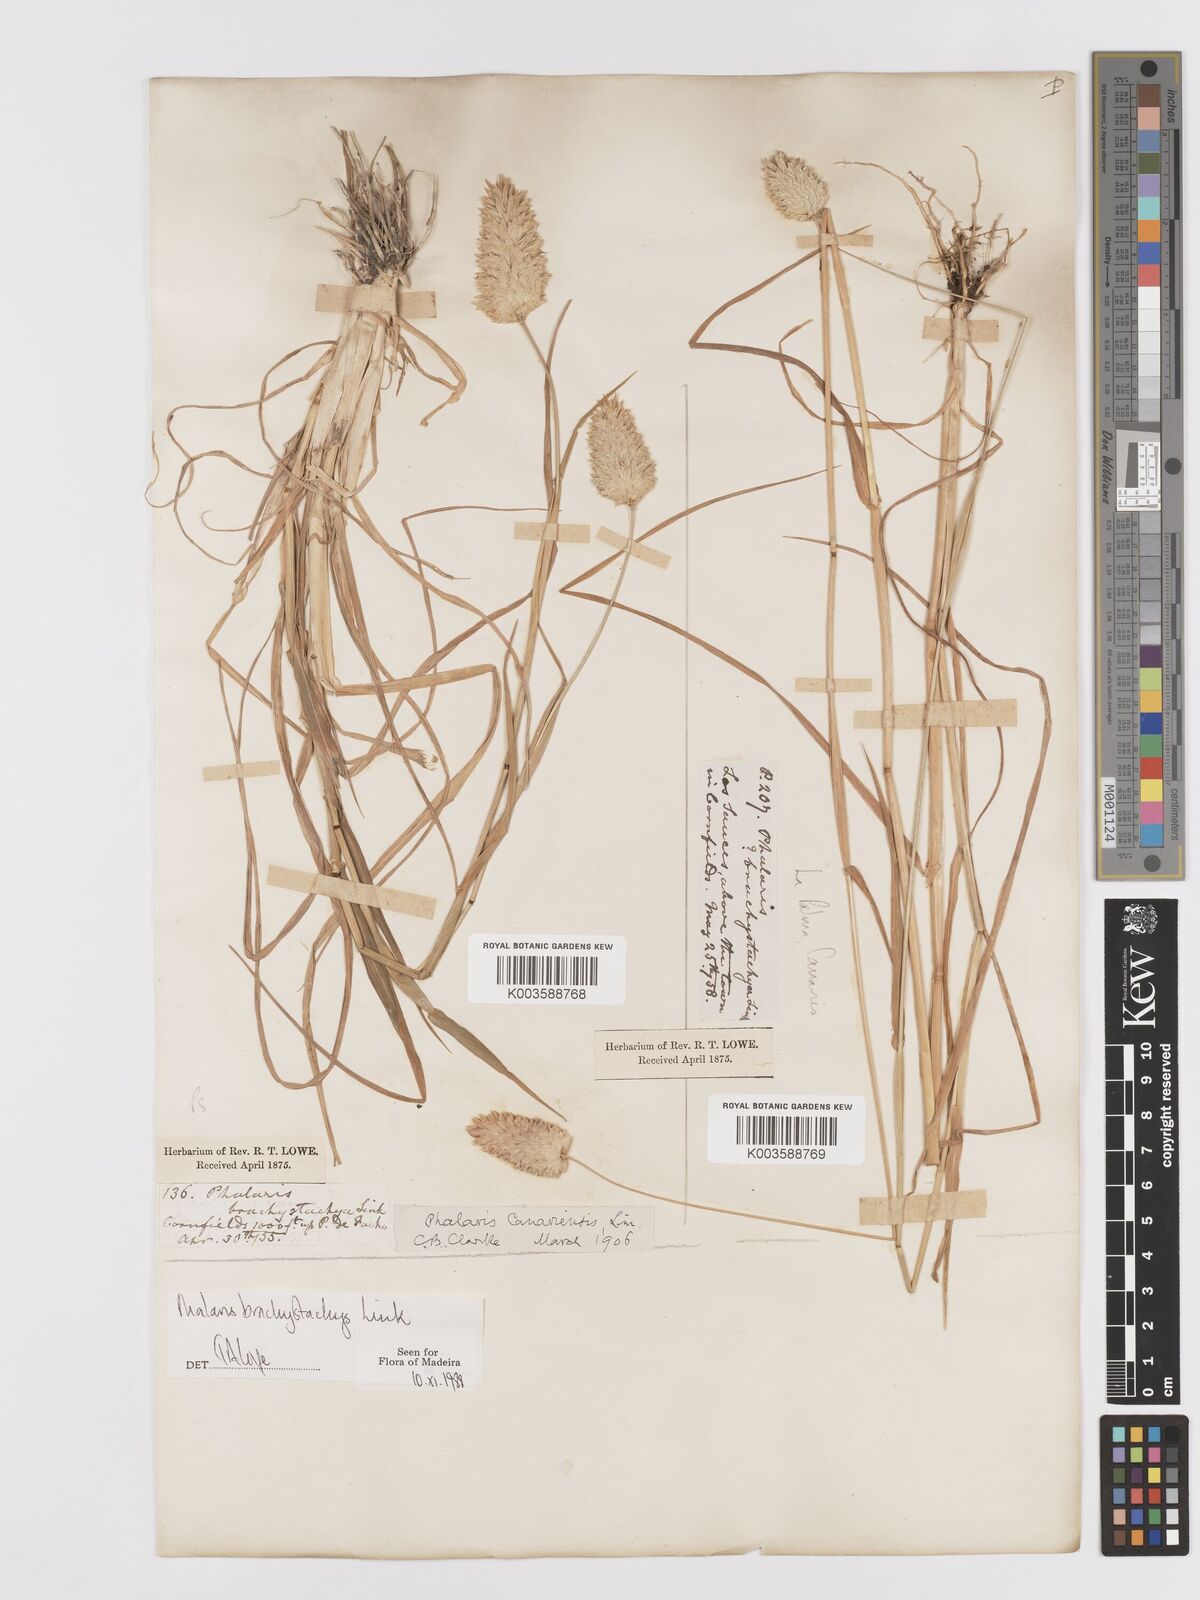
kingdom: Plantae
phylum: Tracheophyta
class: Liliopsida
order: Poales
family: Poaceae
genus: Phalaris
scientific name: Phalaris brachystachys
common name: Confused canary-grass
